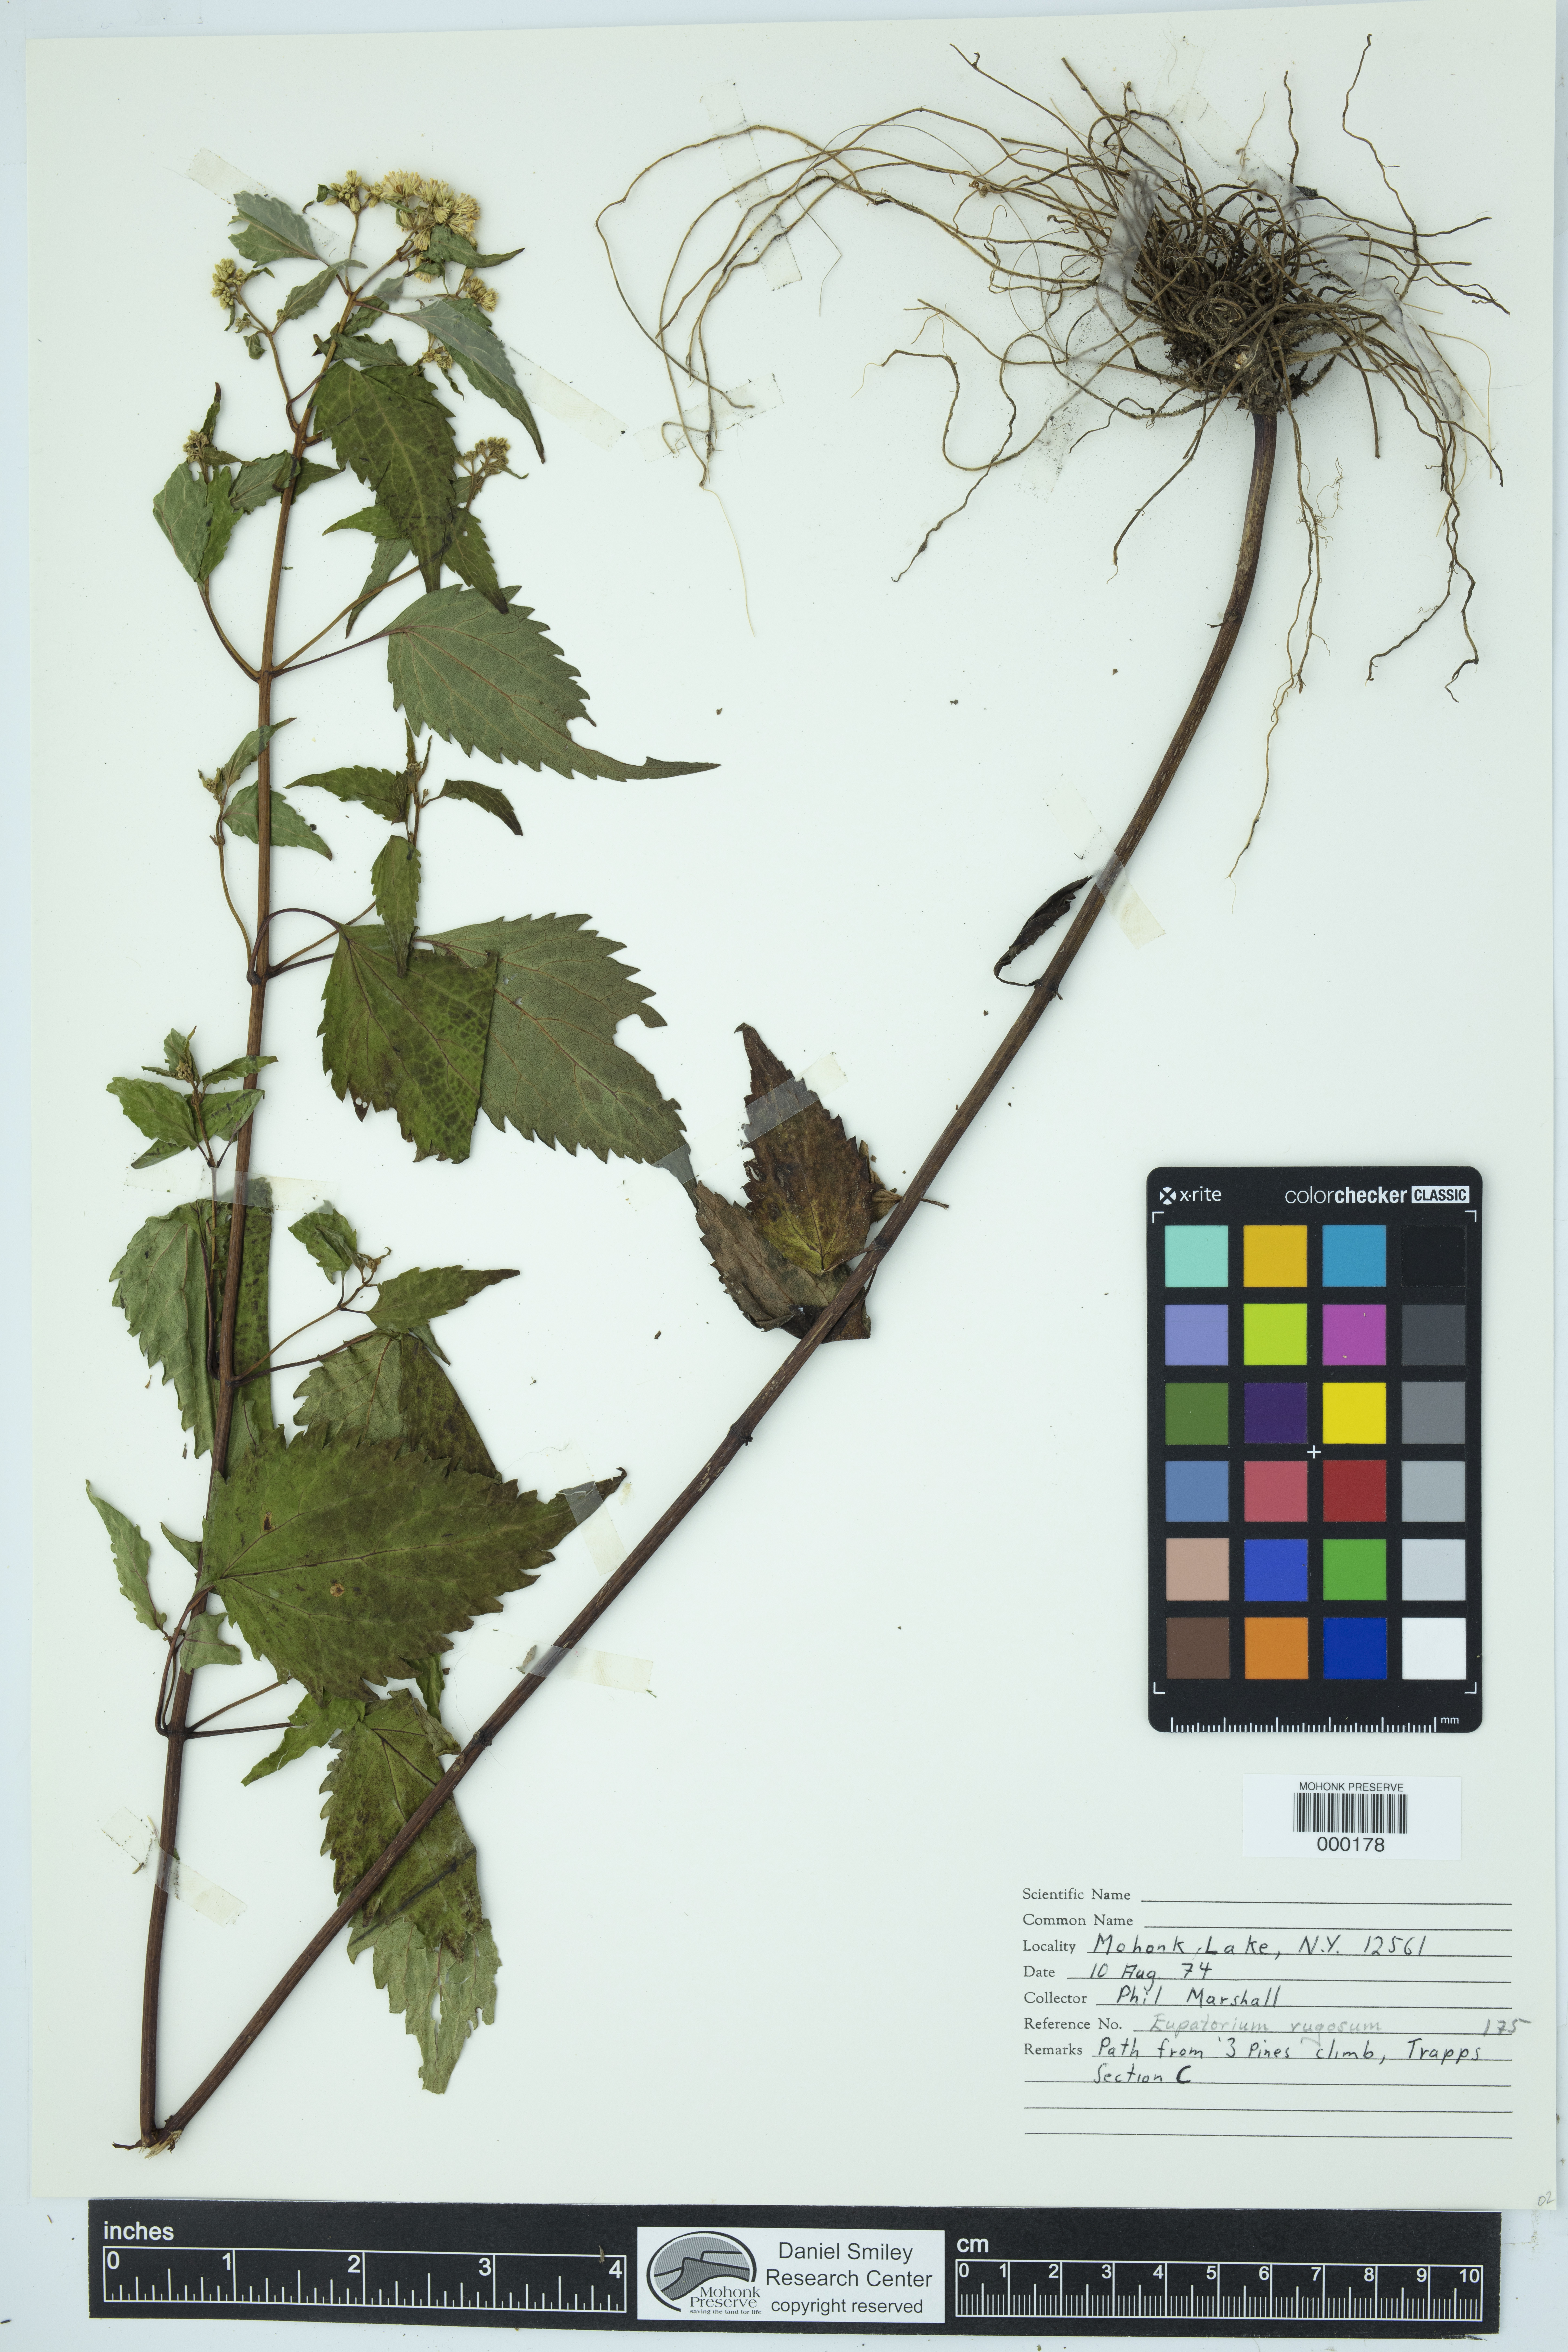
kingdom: Plantae
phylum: Tracheophyta
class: Magnoliopsida
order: Asterales
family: Asteraceae
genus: Ageratina
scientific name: Ageratina altissima
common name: White snakeroot
